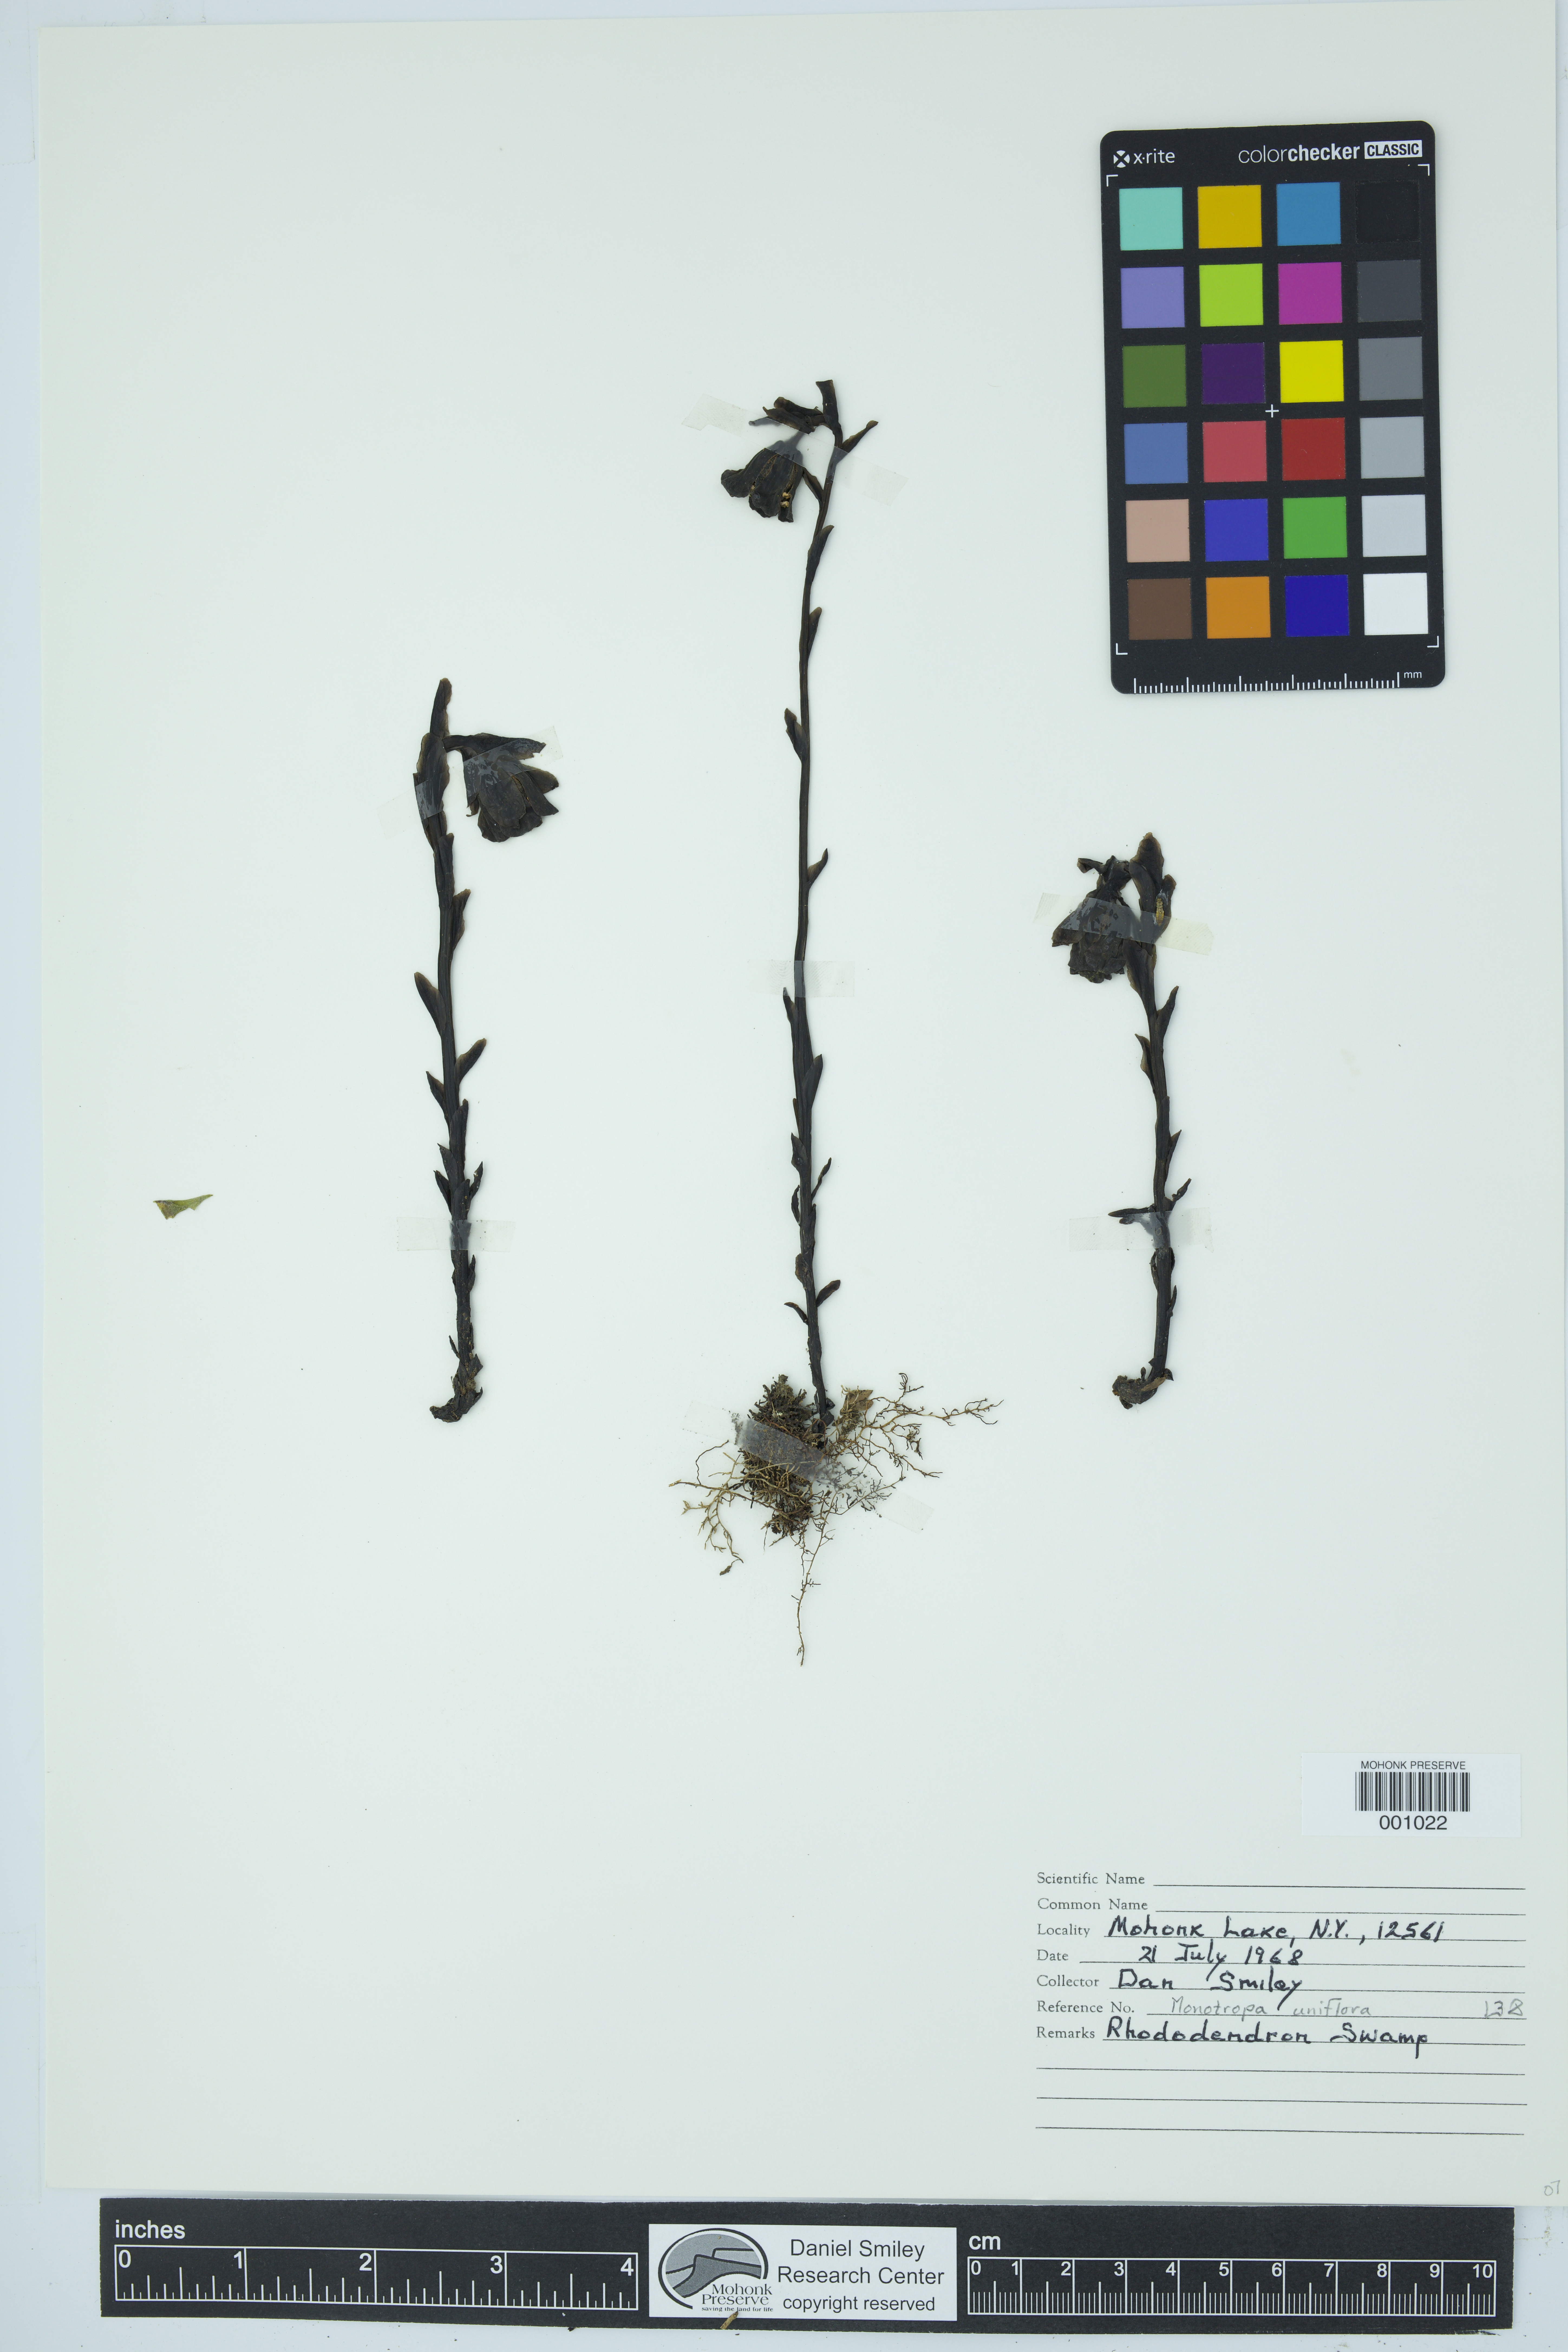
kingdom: Plantae
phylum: Tracheophyta
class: Magnoliopsida
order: Ericales
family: Ericaceae
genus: Monotropa
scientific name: Monotropa uniflora
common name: Convulsion root
